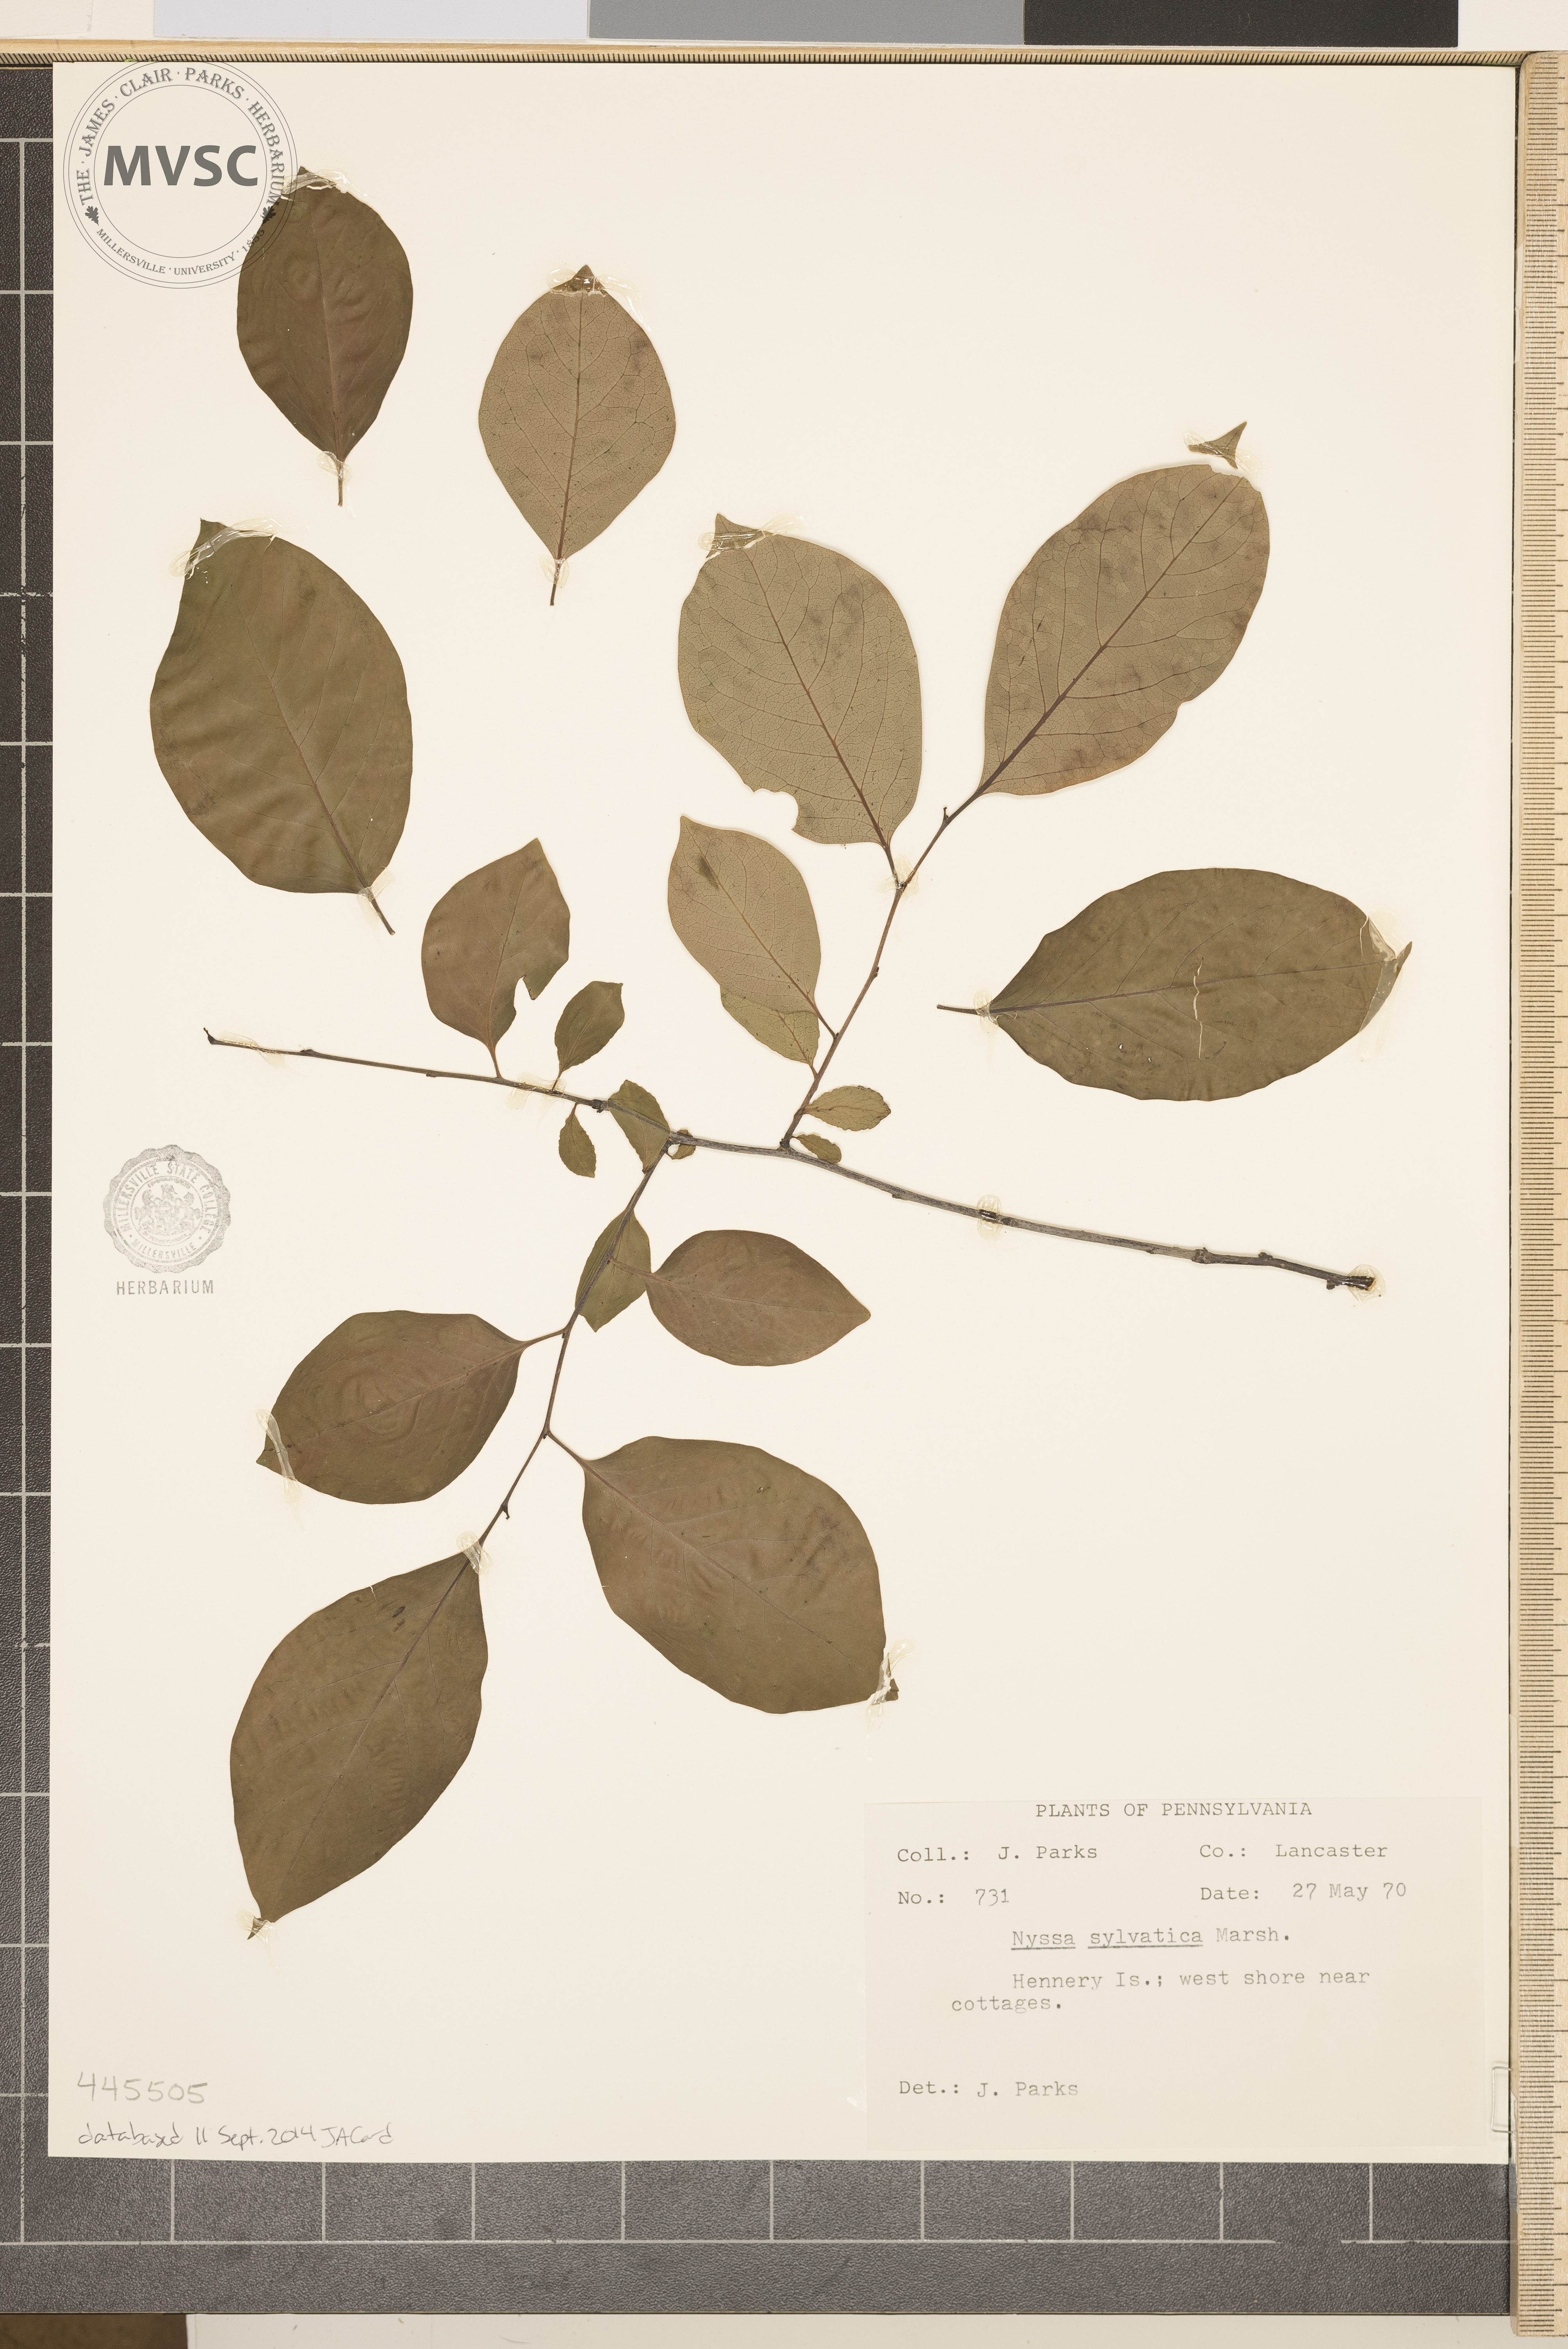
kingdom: Plantae
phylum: Tracheophyta
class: Magnoliopsida
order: Cornales
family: Nyssaceae
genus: Nyssa
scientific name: Nyssa sylvatica
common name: Black gum
